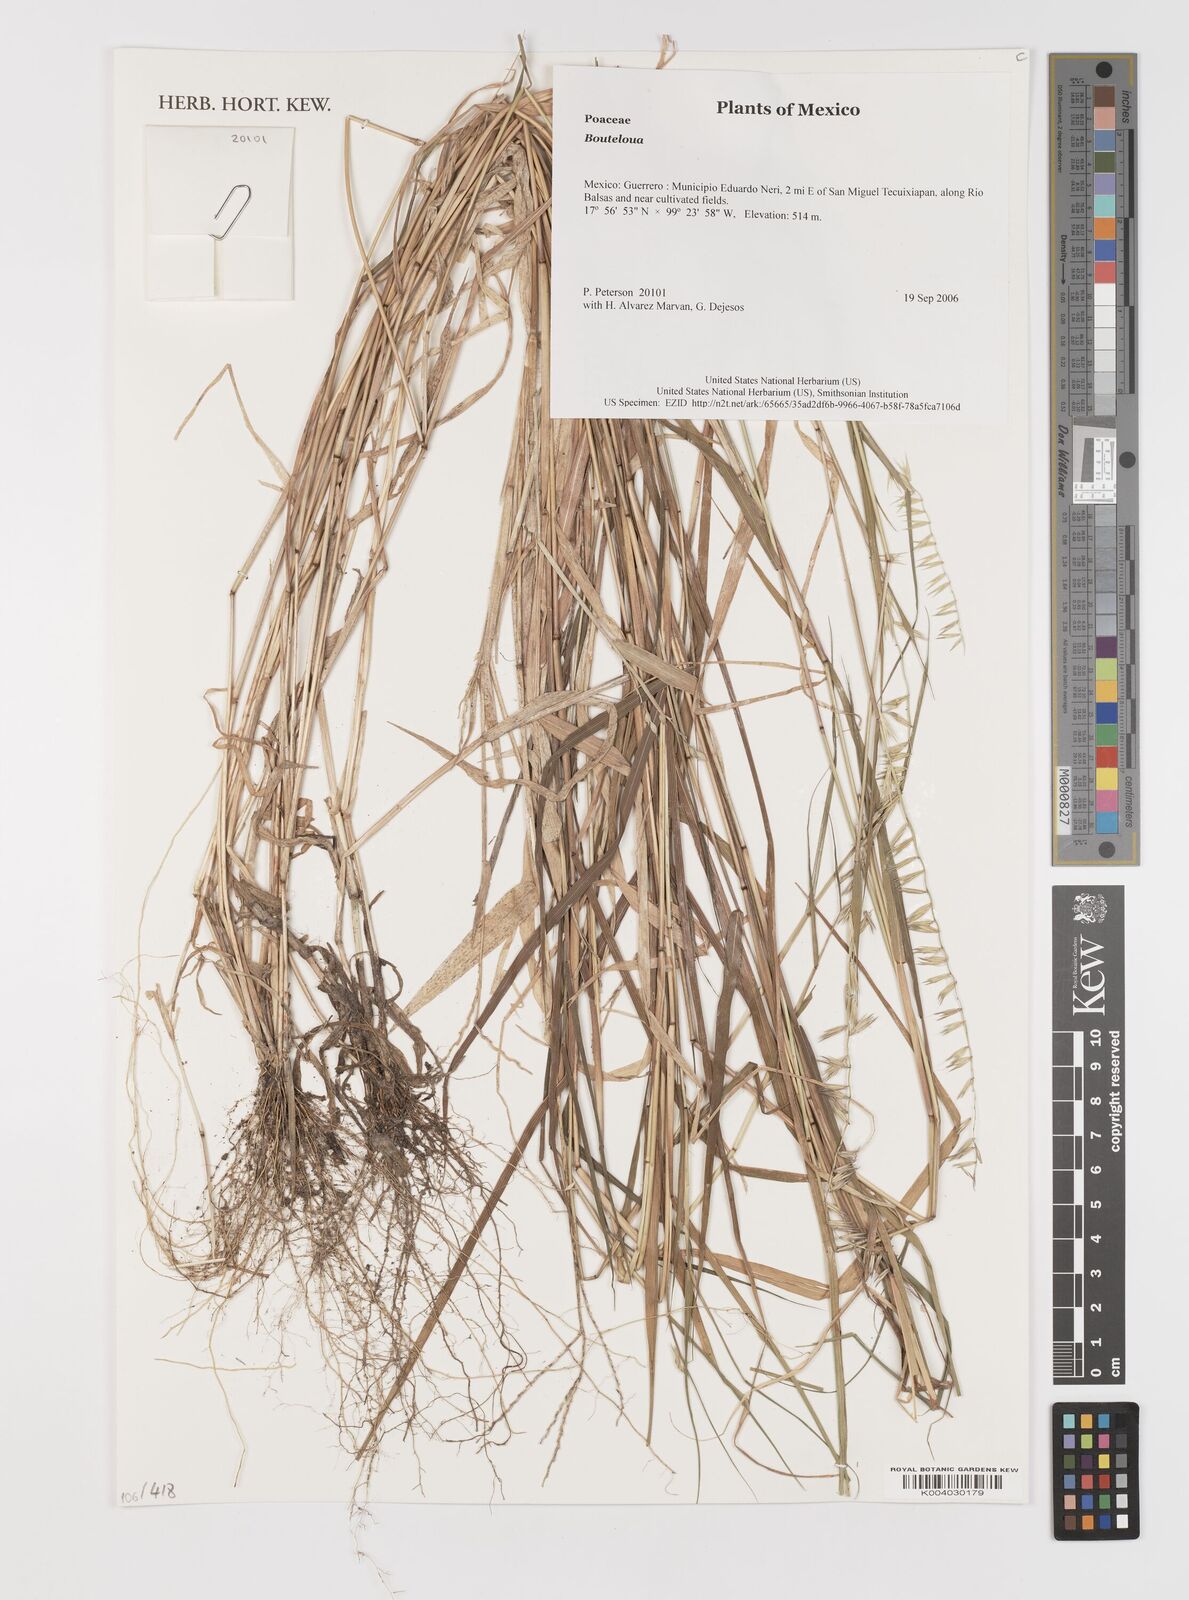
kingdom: Plantae
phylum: Tracheophyta
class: Liliopsida
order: Poales
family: Poaceae
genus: Bouteloua
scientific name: Bouteloua
